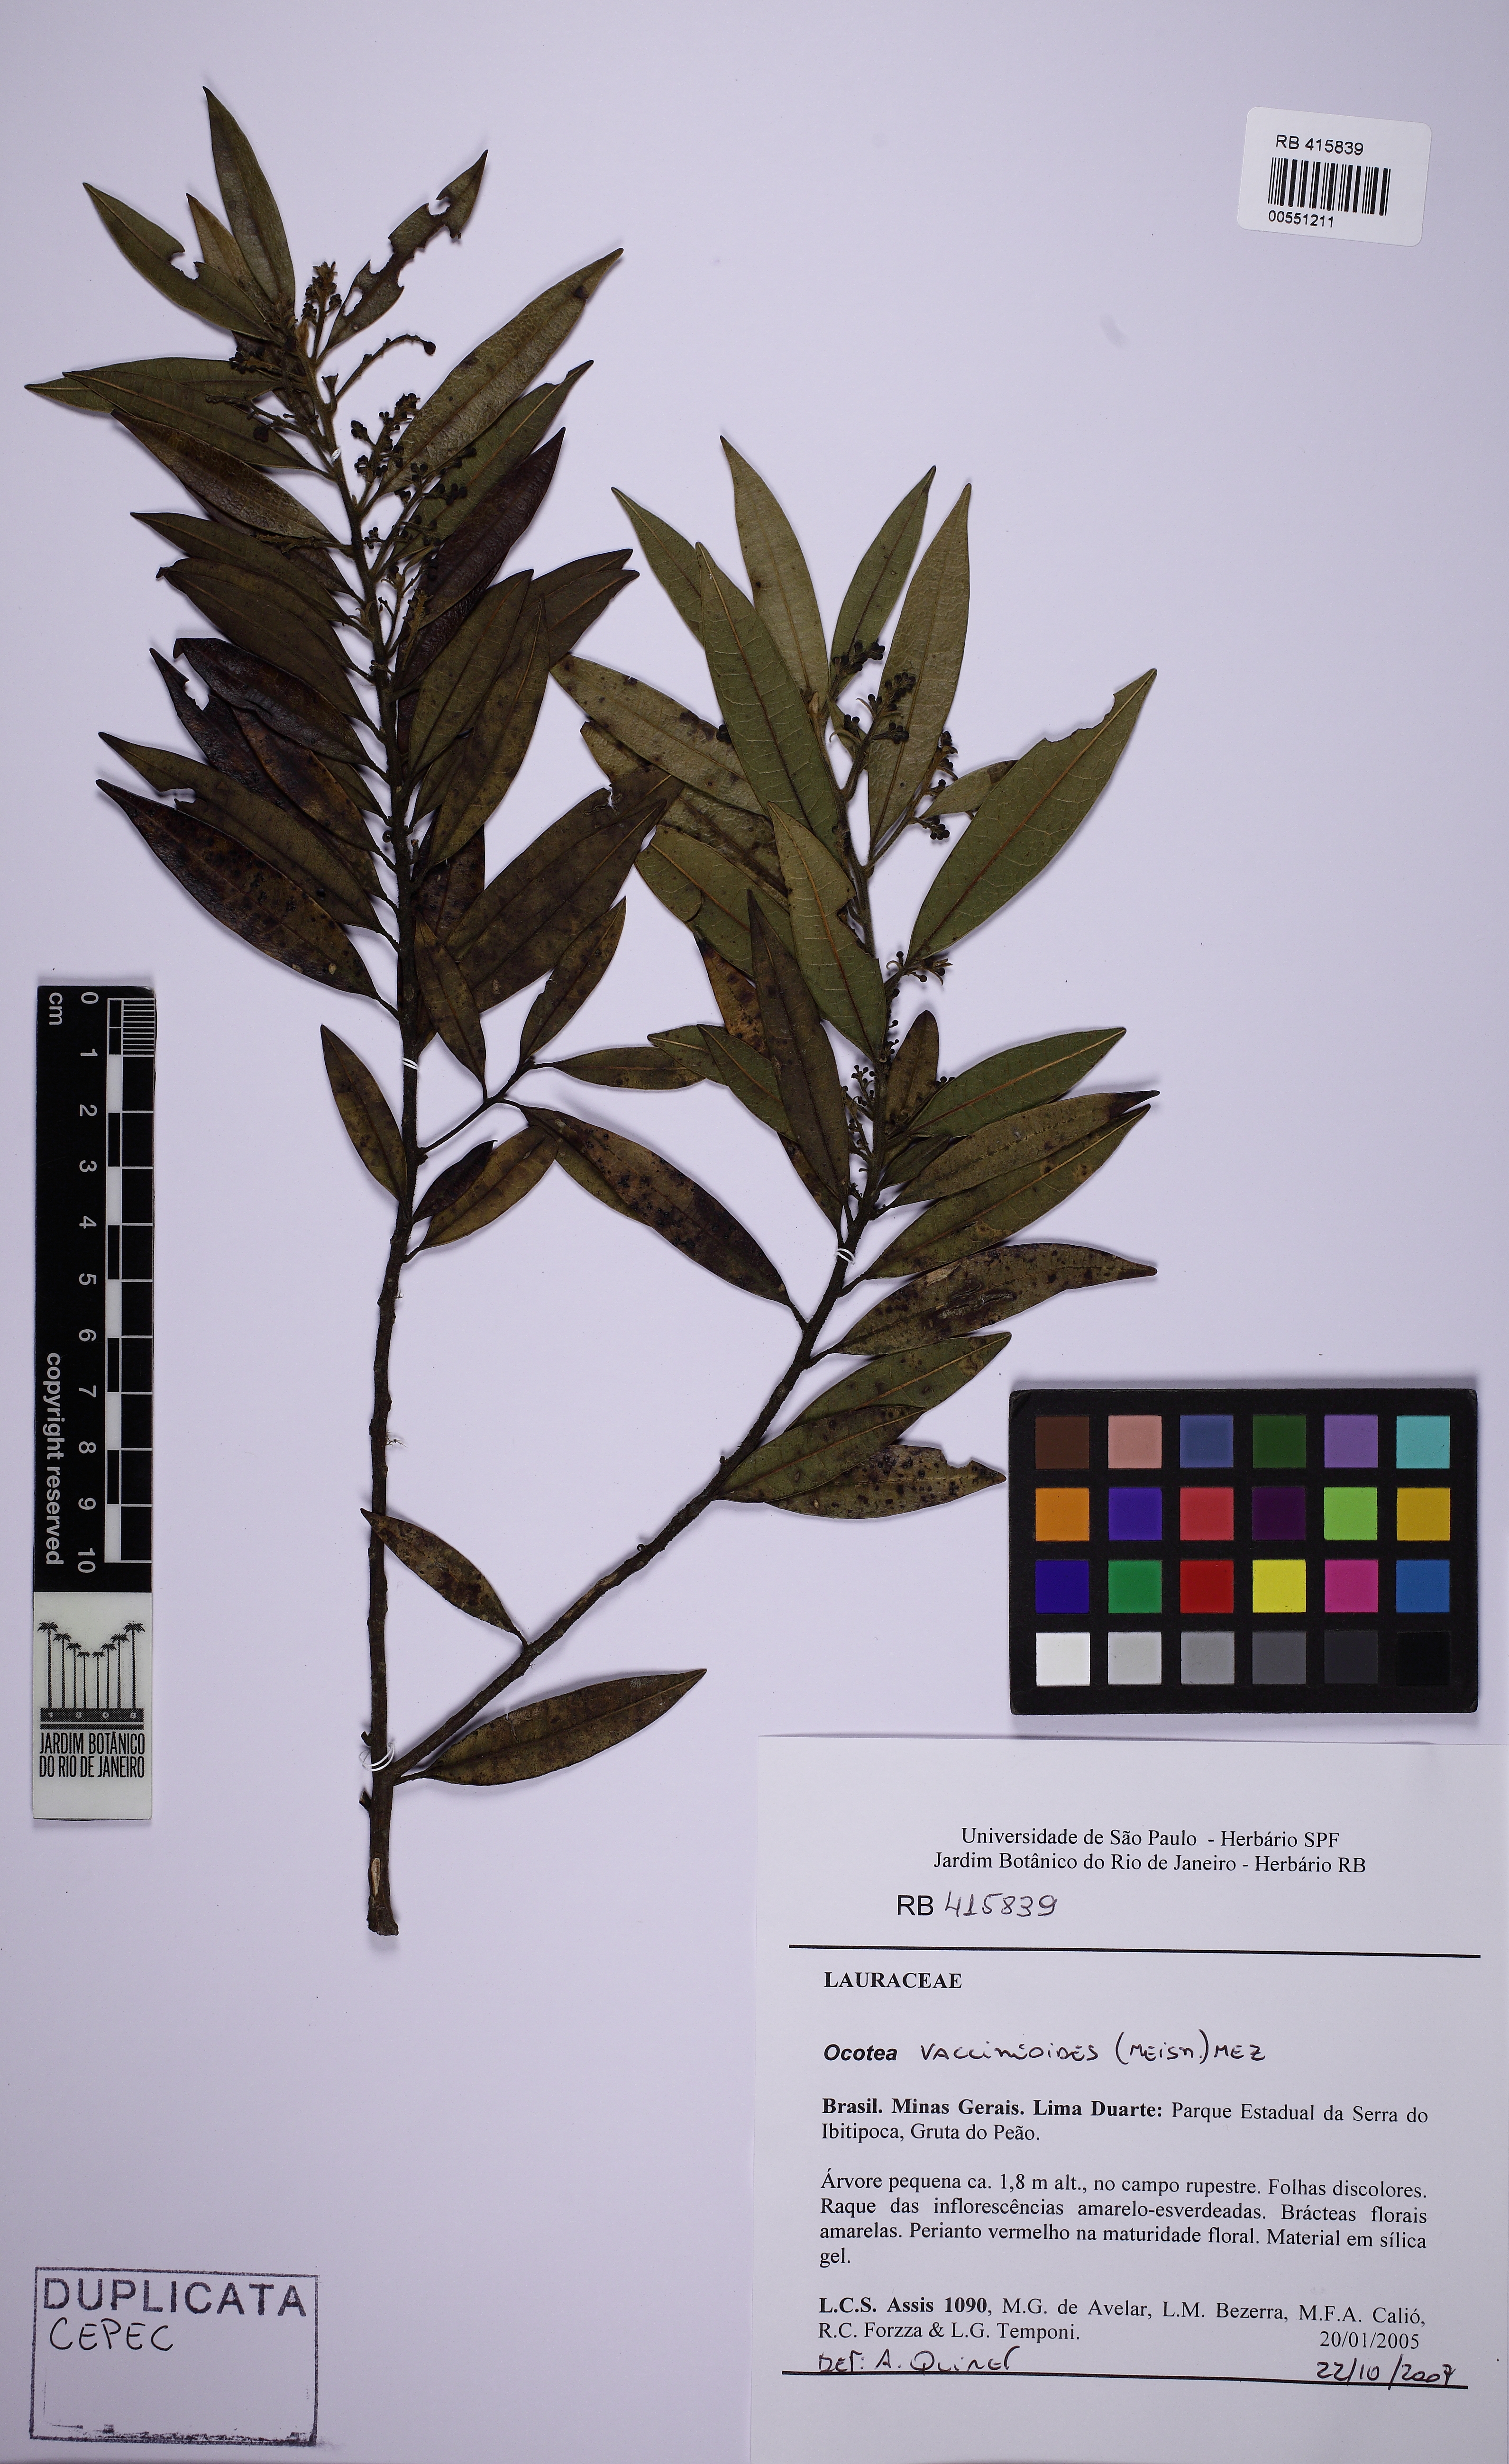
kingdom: Plantae
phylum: Tracheophyta
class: Magnoliopsida
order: Laurales
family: Lauraceae
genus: Ocotea
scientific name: Ocotea vaccinioides
